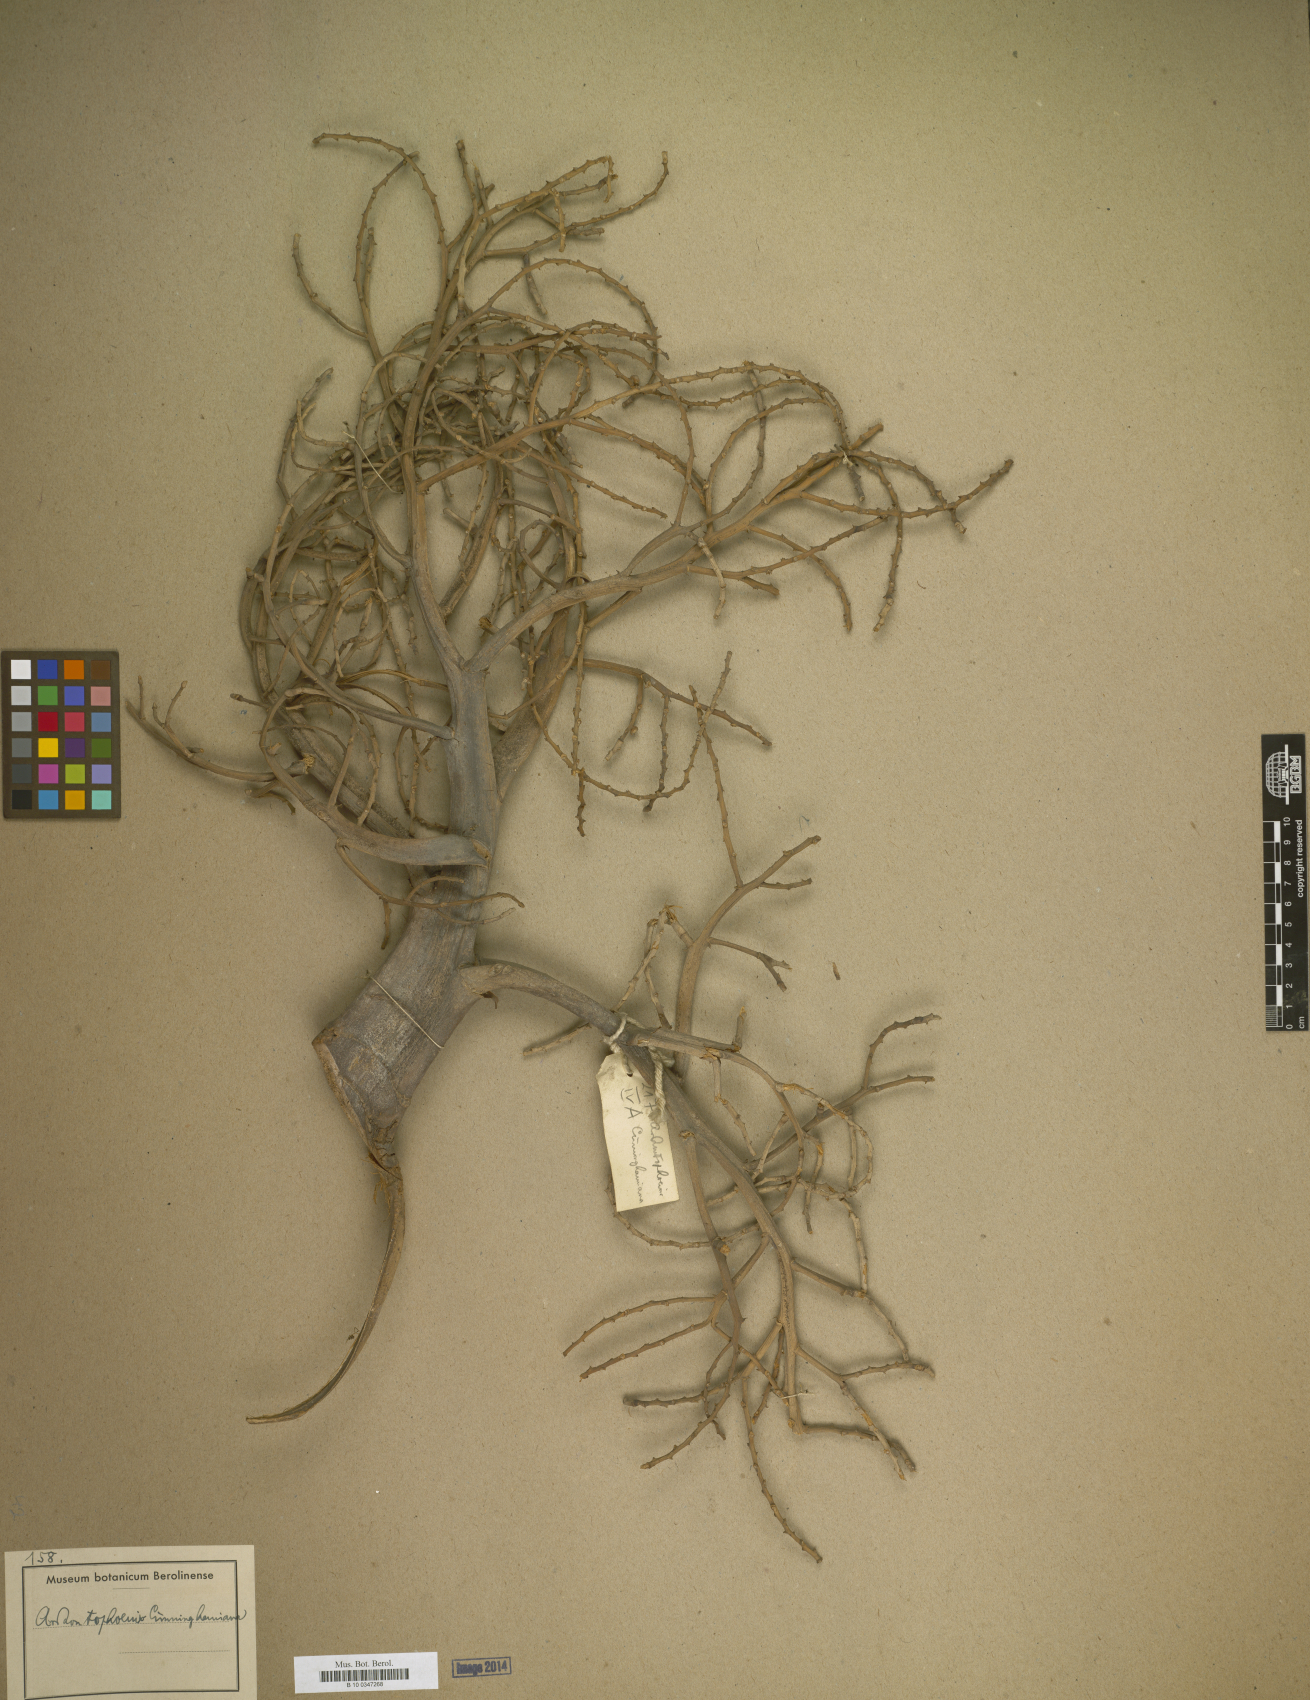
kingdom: Plantae
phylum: Tracheophyta
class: Liliopsida
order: Arecales
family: Arecaceae
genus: Acanthophoenix
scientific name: Acanthophoenix
